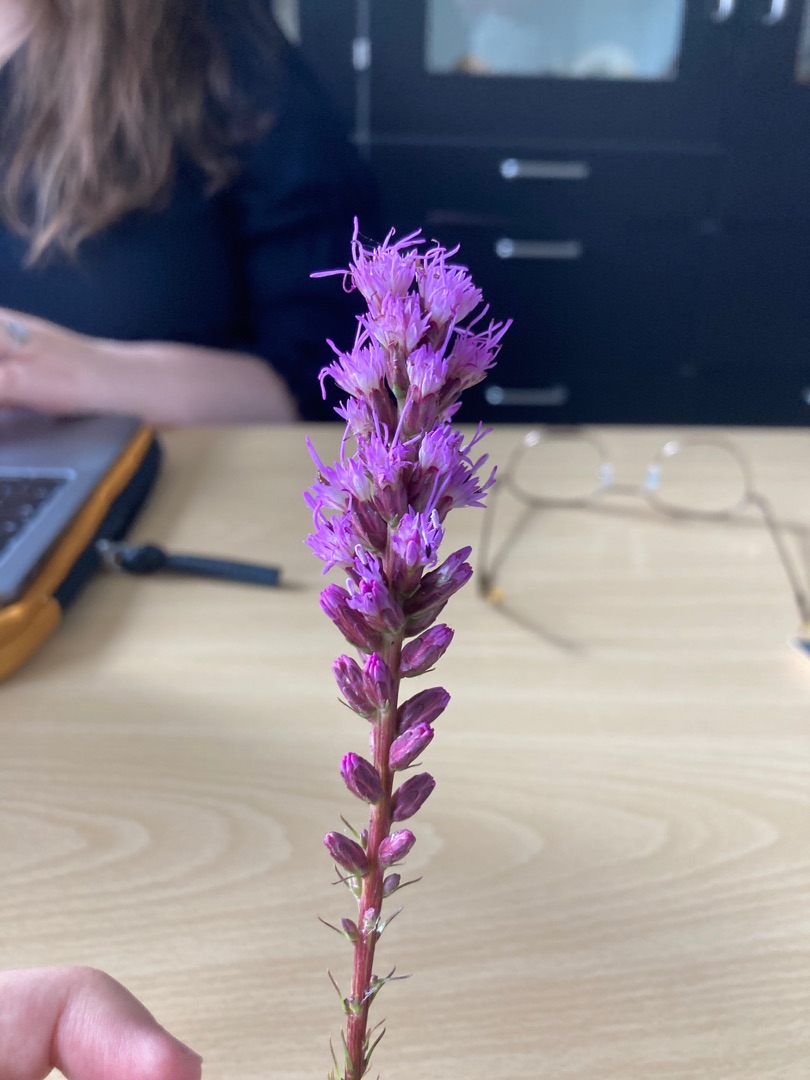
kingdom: Plantae
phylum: Tracheophyta
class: Magnoliopsida
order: Myrtales
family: Lythraceae
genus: Lythrum
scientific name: Lythrum salicaria
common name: Kattehale
